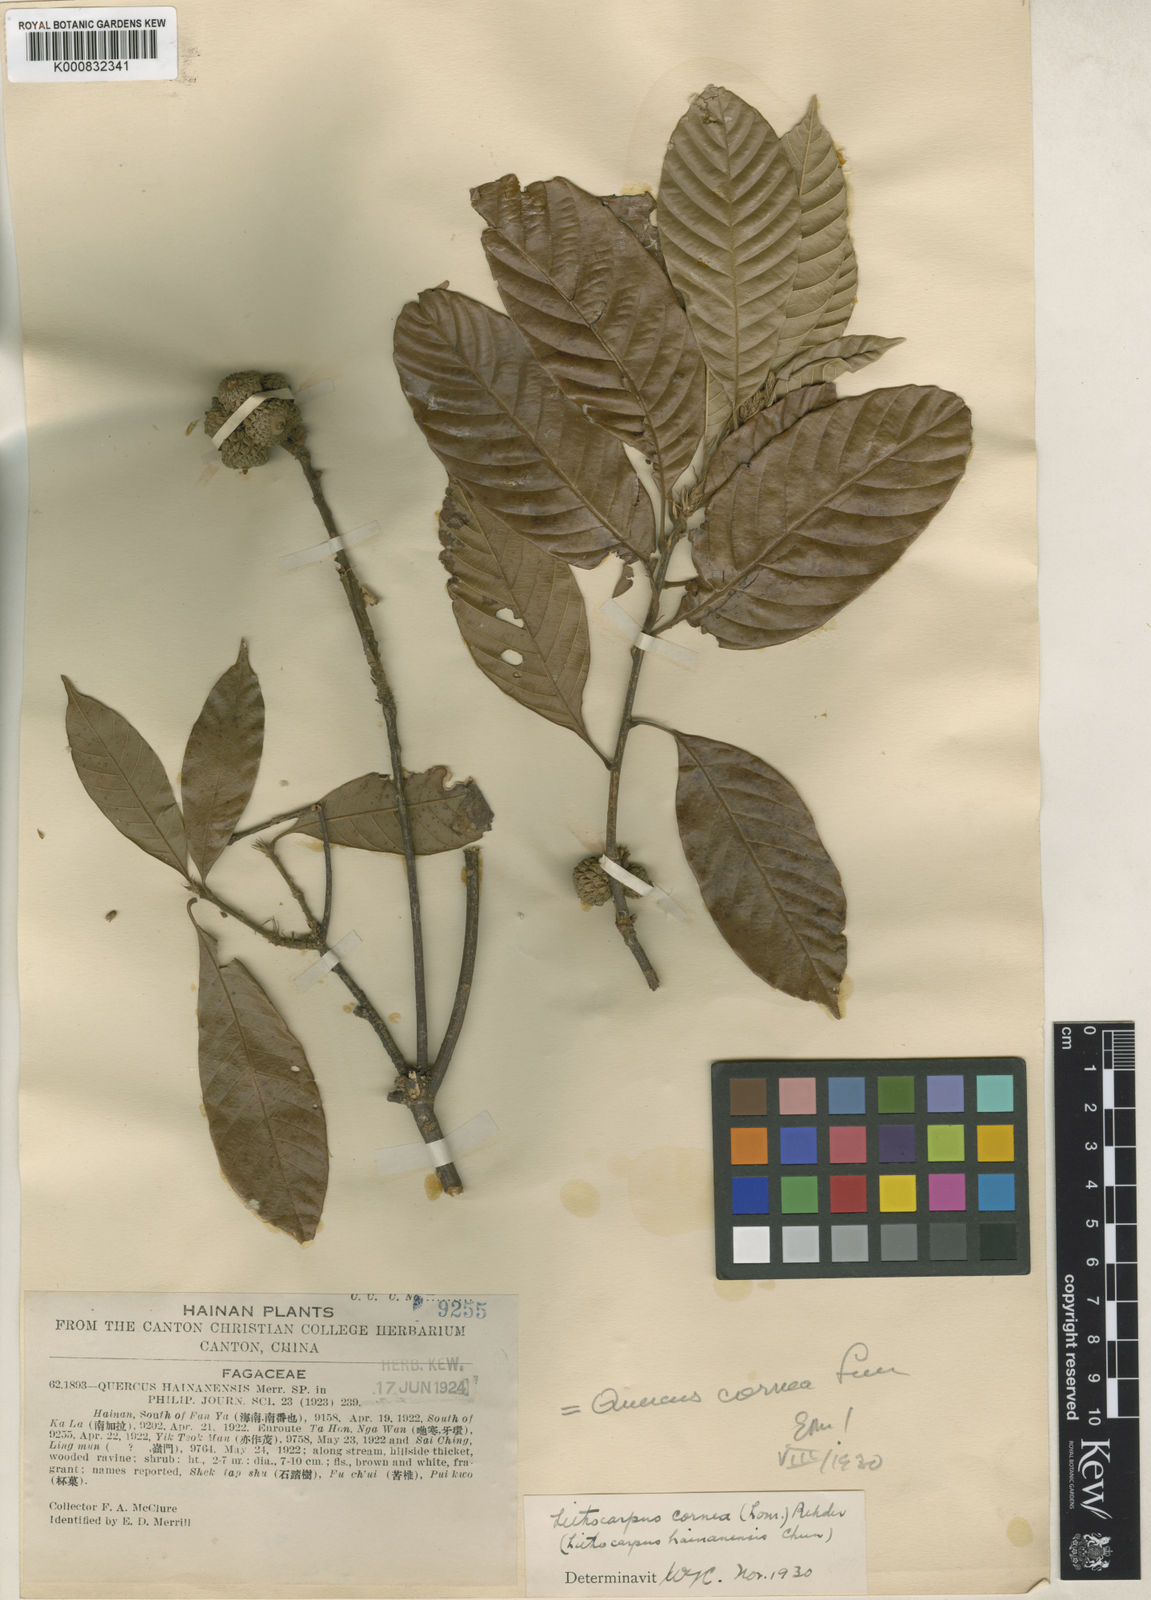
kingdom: Plantae
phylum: Tracheophyta
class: Magnoliopsida
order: Fagales
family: Fagaceae
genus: Lithocarpus
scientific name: Lithocarpus corneus
